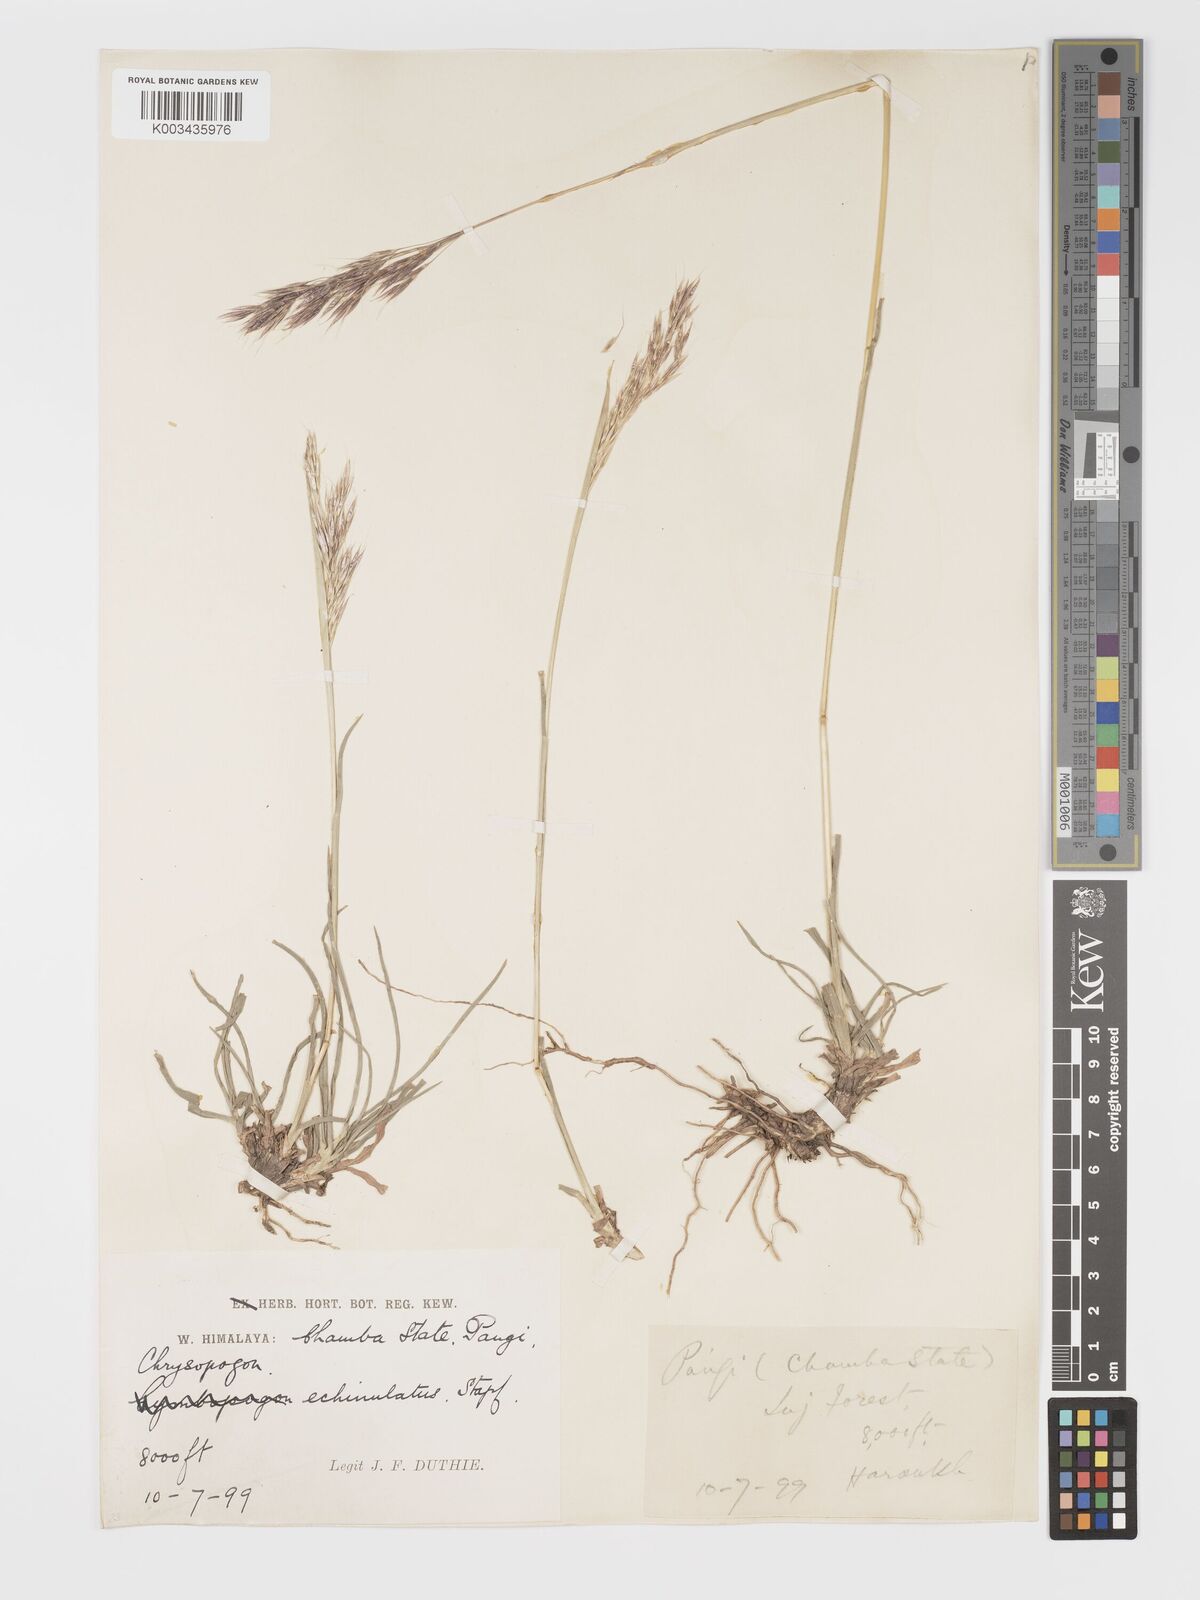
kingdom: Plantae
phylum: Tracheophyta
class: Liliopsida
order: Poales
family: Poaceae
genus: Chrysopogon
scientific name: Chrysopogon gryllus
